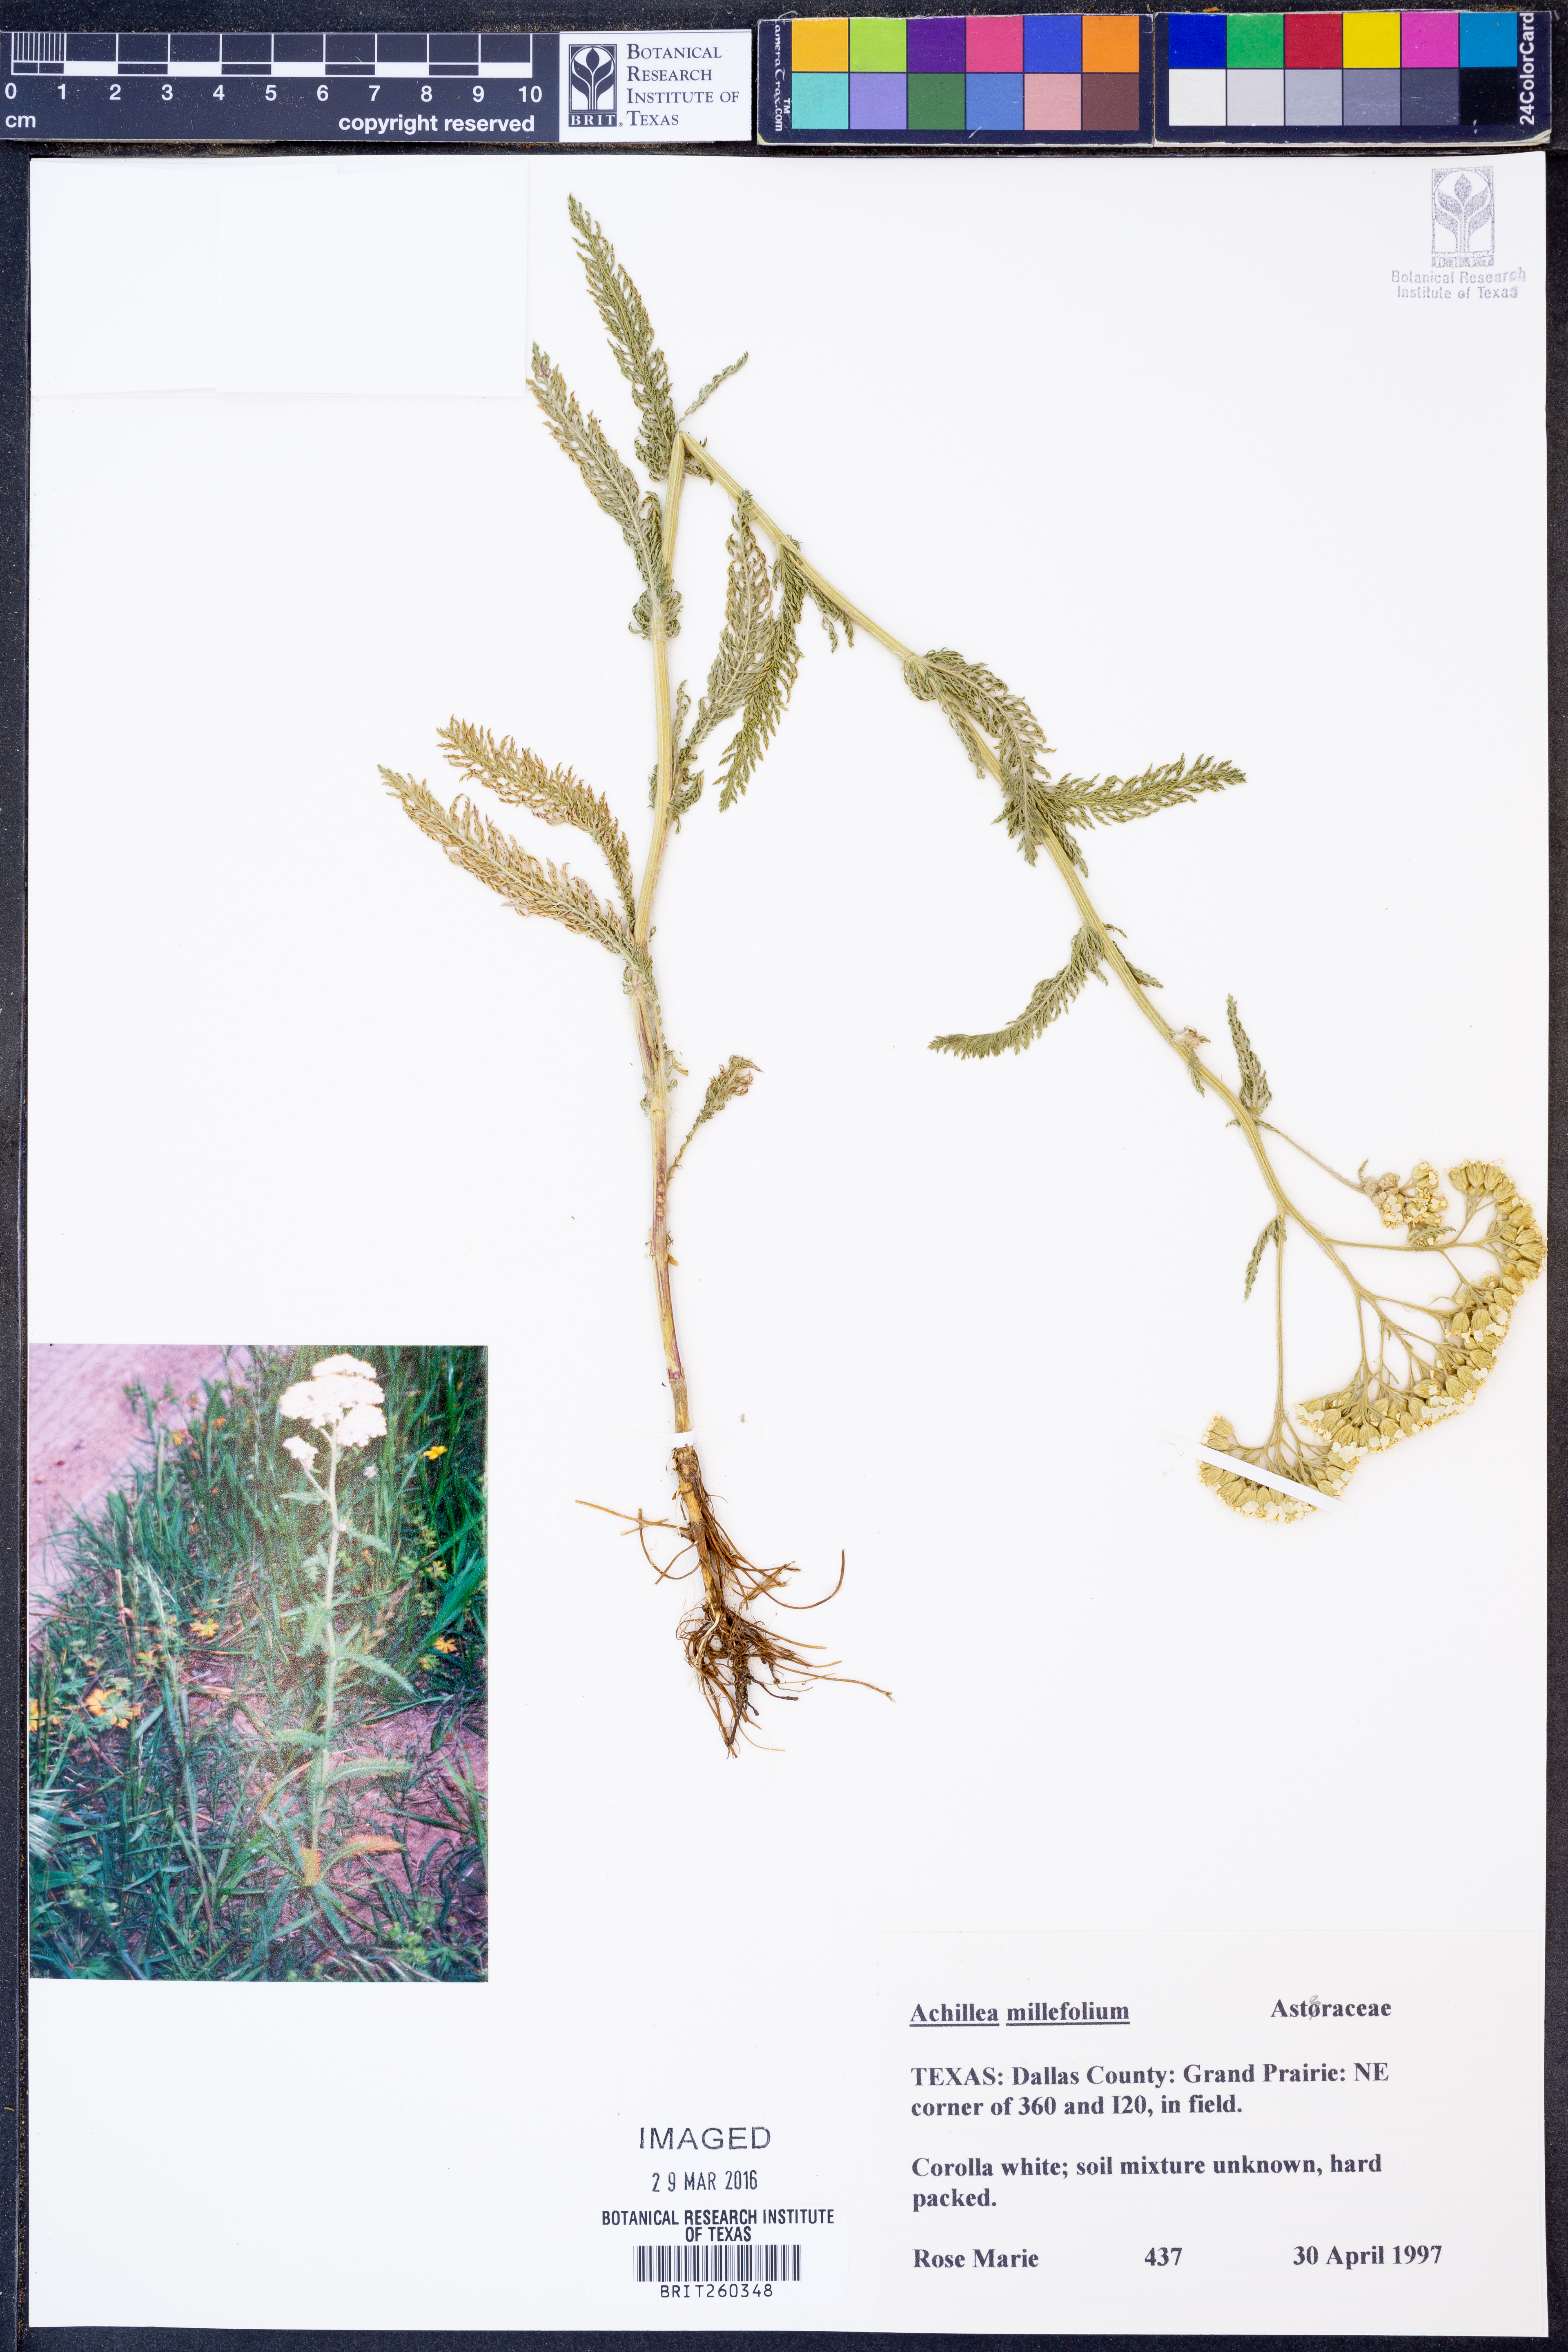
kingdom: Plantae
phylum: Tracheophyta
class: Magnoliopsida
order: Asterales
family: Asteraceae
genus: Achillea
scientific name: Achillea millefolium
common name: Yarrow
